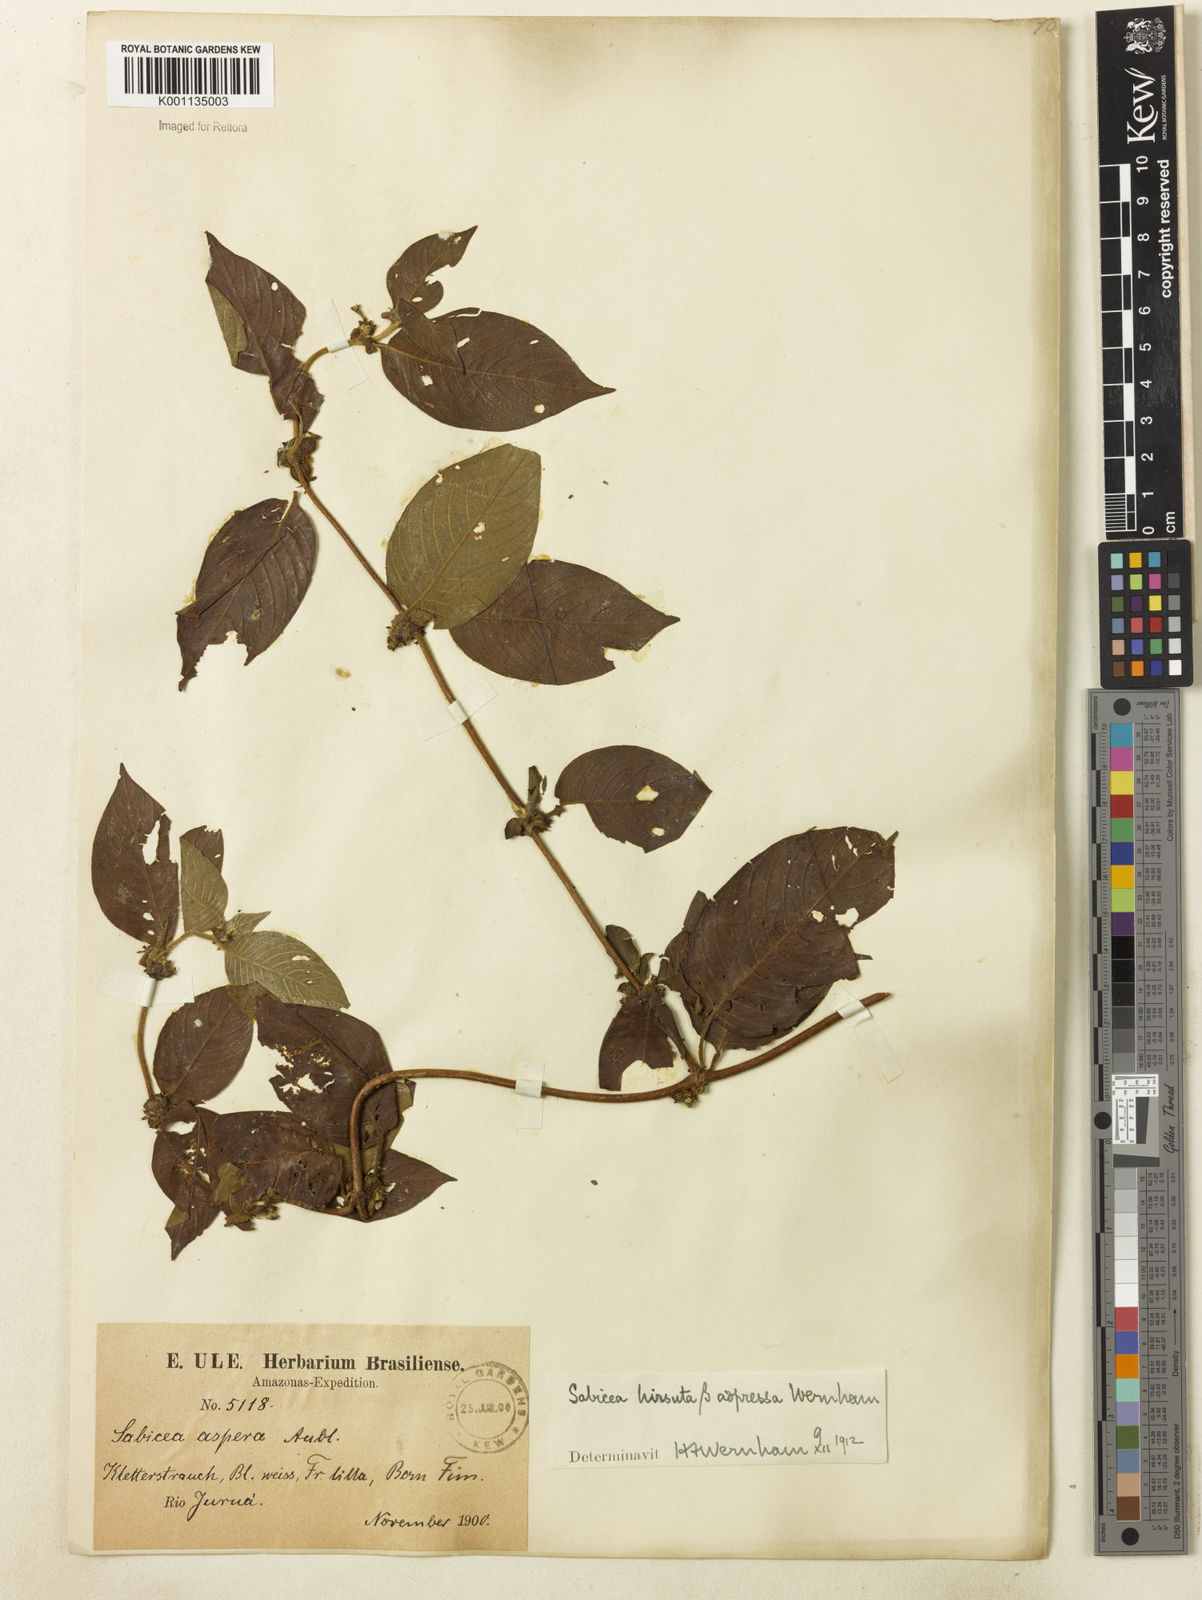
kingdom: Plantae
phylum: Tracheophyta
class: Magnoliopsida
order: Gentianales
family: Rubiaceae
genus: Sabicea
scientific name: Sabicea villosa
